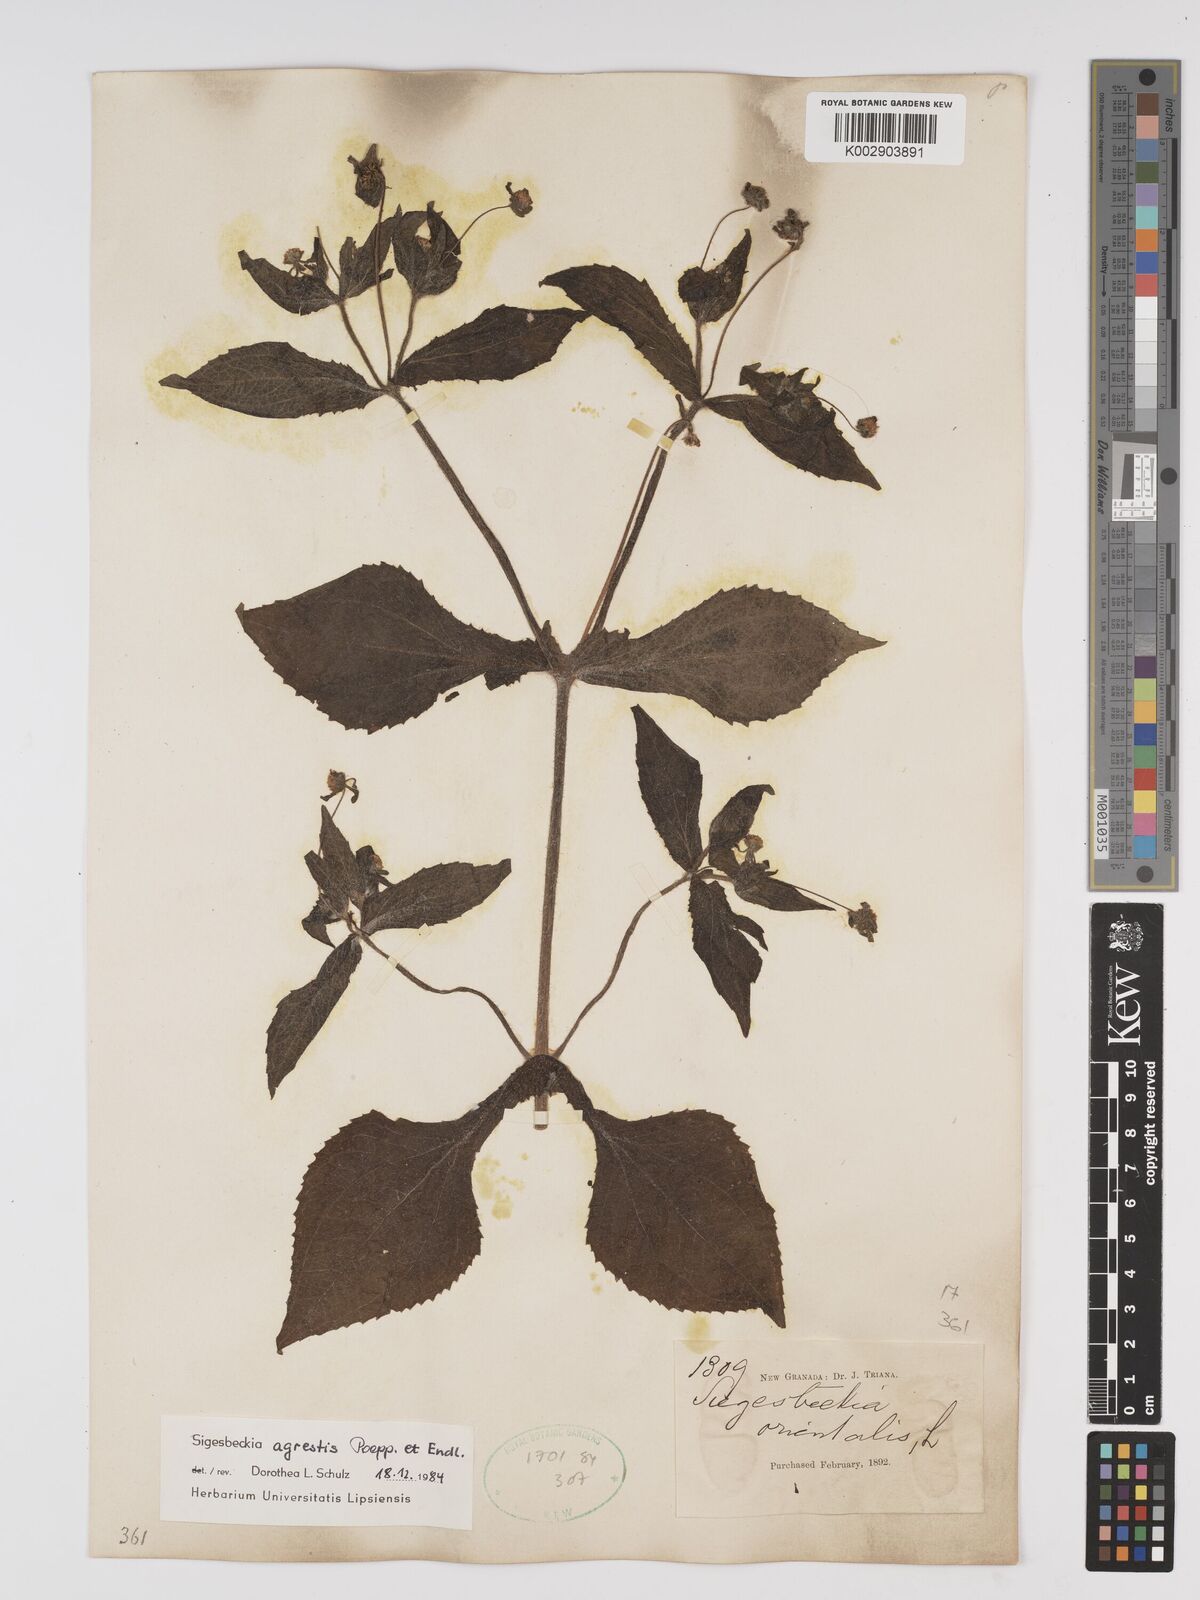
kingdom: Plantae
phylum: Tracheophyta
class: Magnoliopsida
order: Asterales
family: Asteraceae
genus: Sigesbeckia
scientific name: Sigesbeckia flosculosa
